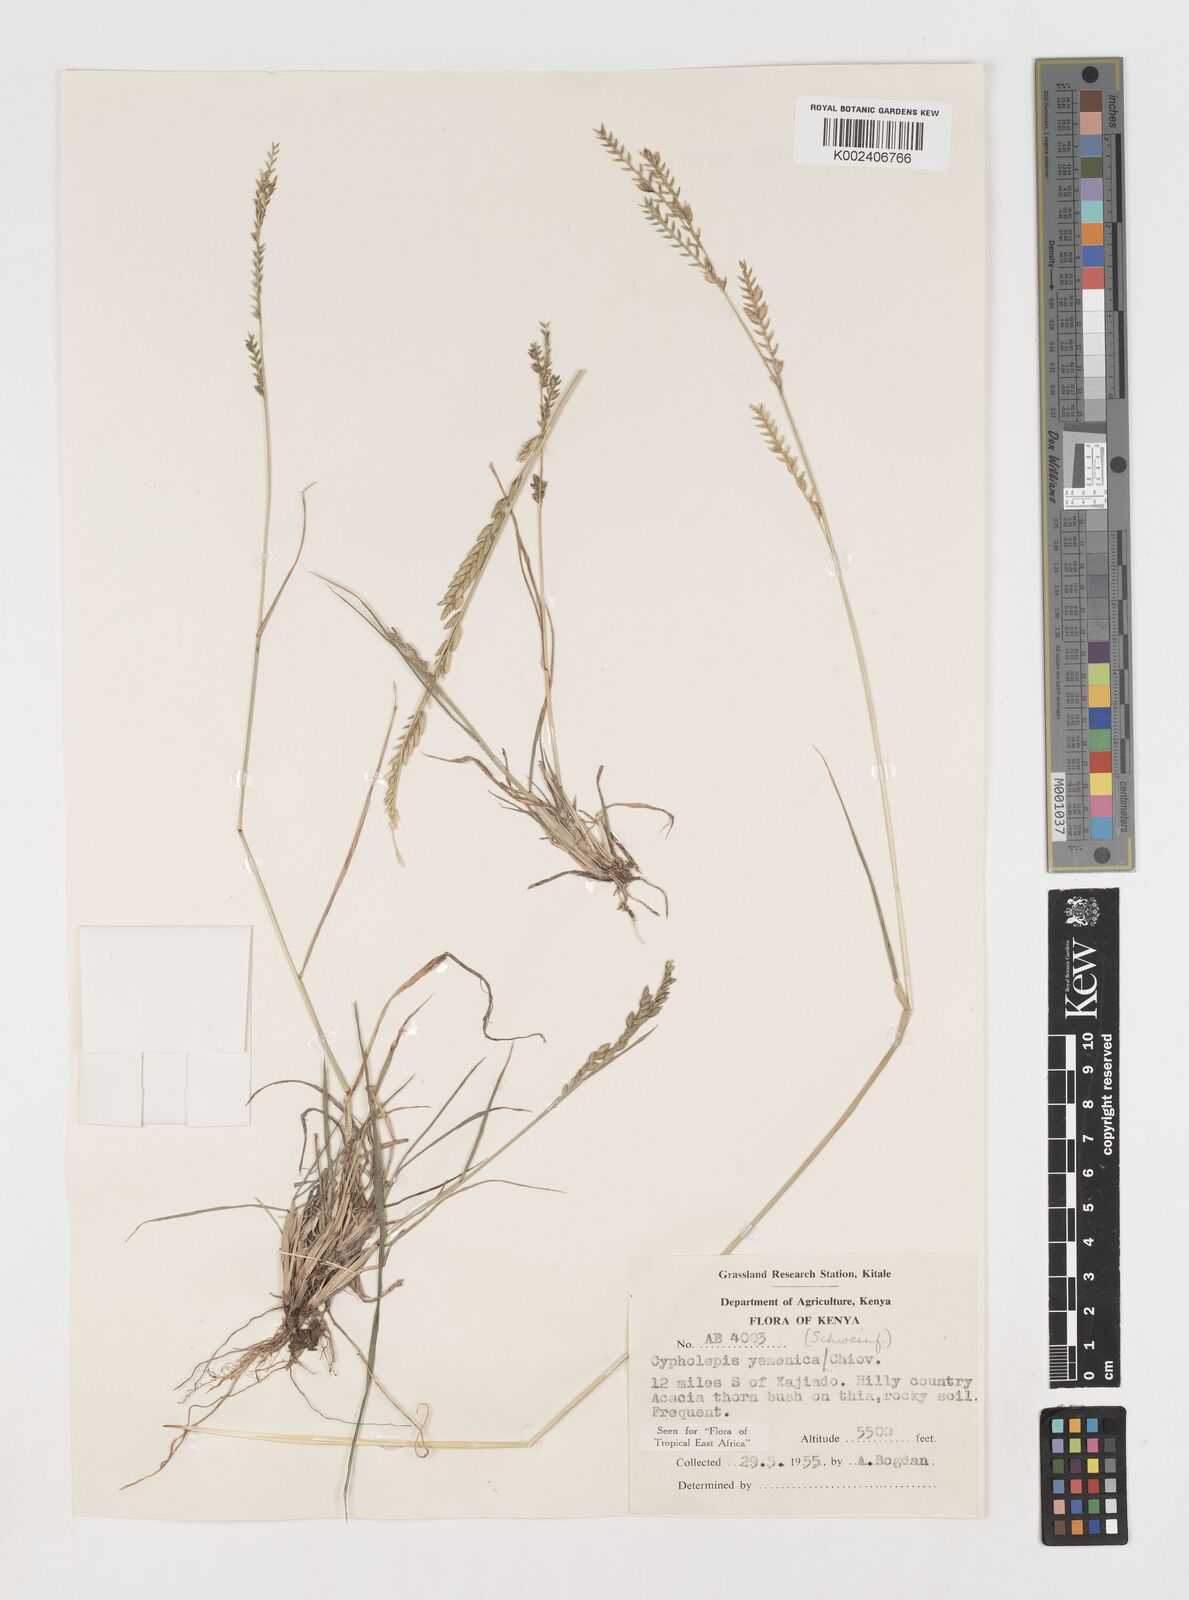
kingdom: Plantae
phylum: Tracheophyta
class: Liliopsida
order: Poales
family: Poaceae
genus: Disakisperma
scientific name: Disakisperma yemenicum
